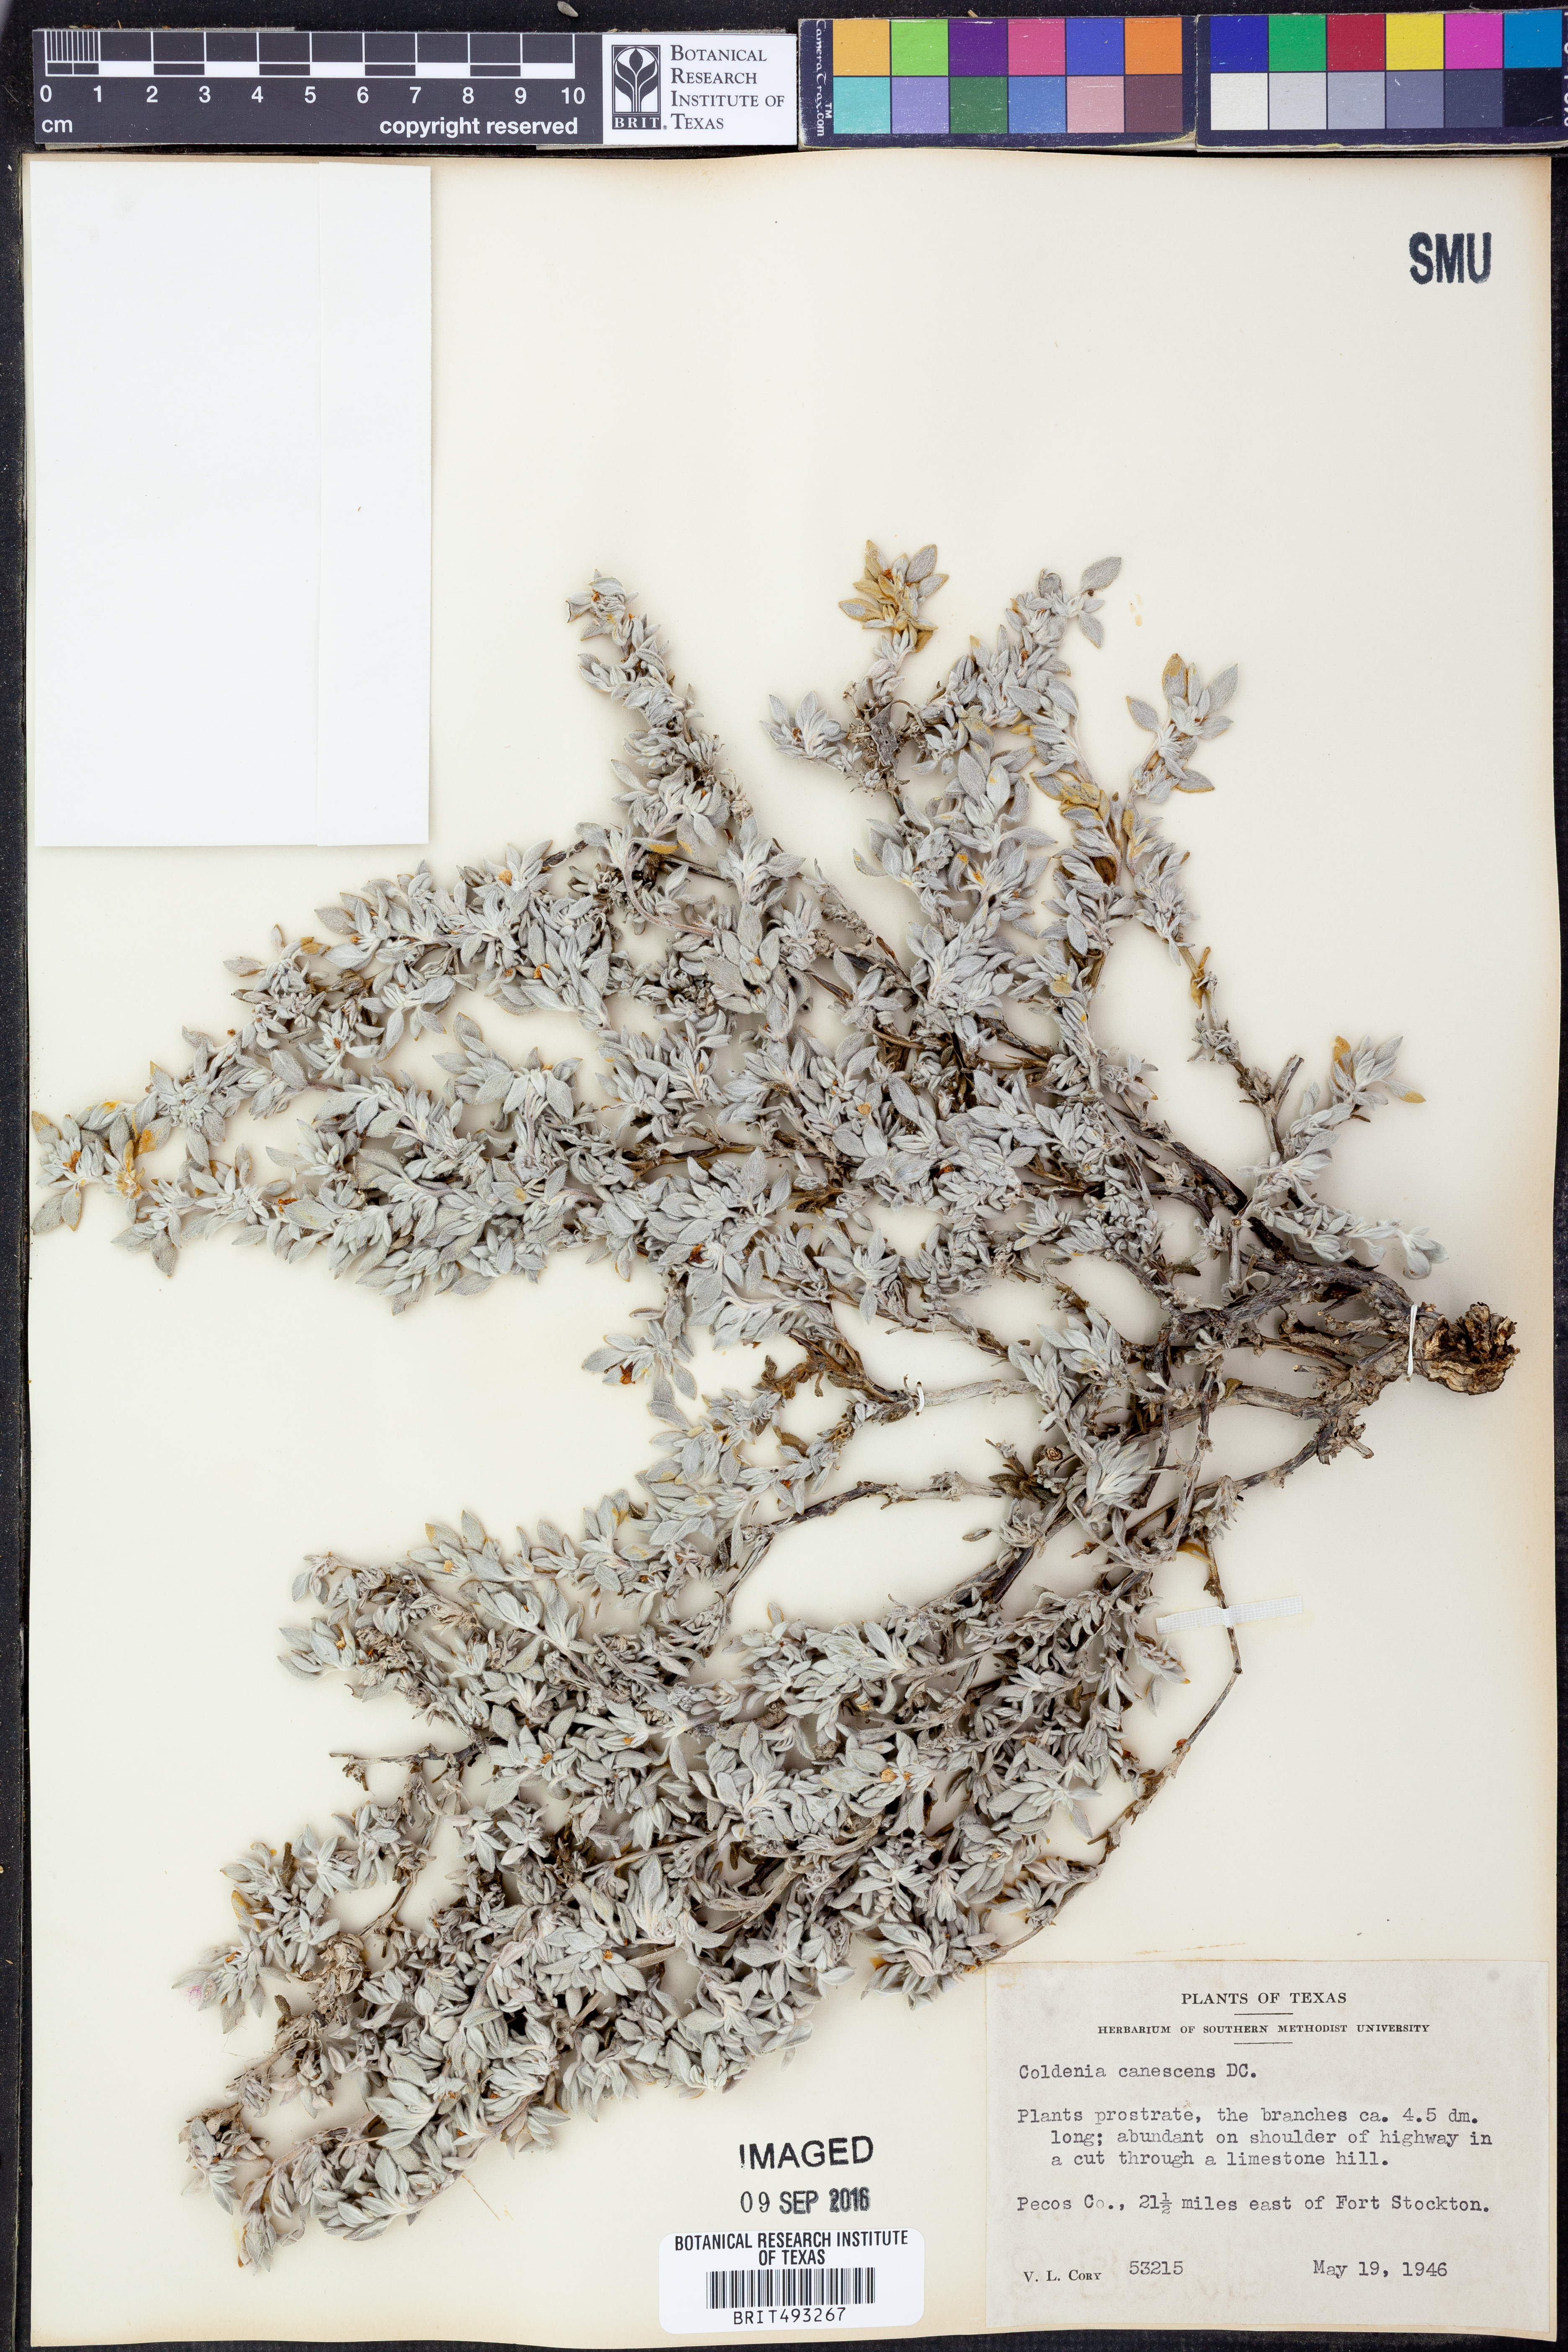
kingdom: Plantae
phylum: Tracheophyta
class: Magnoliopsida
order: Boraginales
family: Ehretiaceae
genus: Tiquilia
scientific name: Tiquilia canescens
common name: Hairy tiquilia
